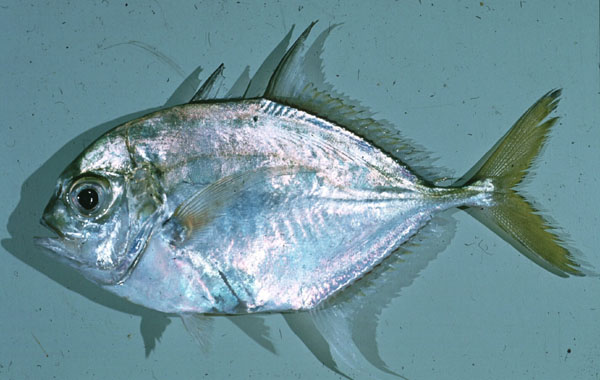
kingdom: Animalia
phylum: Chordata
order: Perciformes
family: Carangidae
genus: Carangoides
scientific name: Carangoides hedlandensis
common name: Bumpnose trevally
